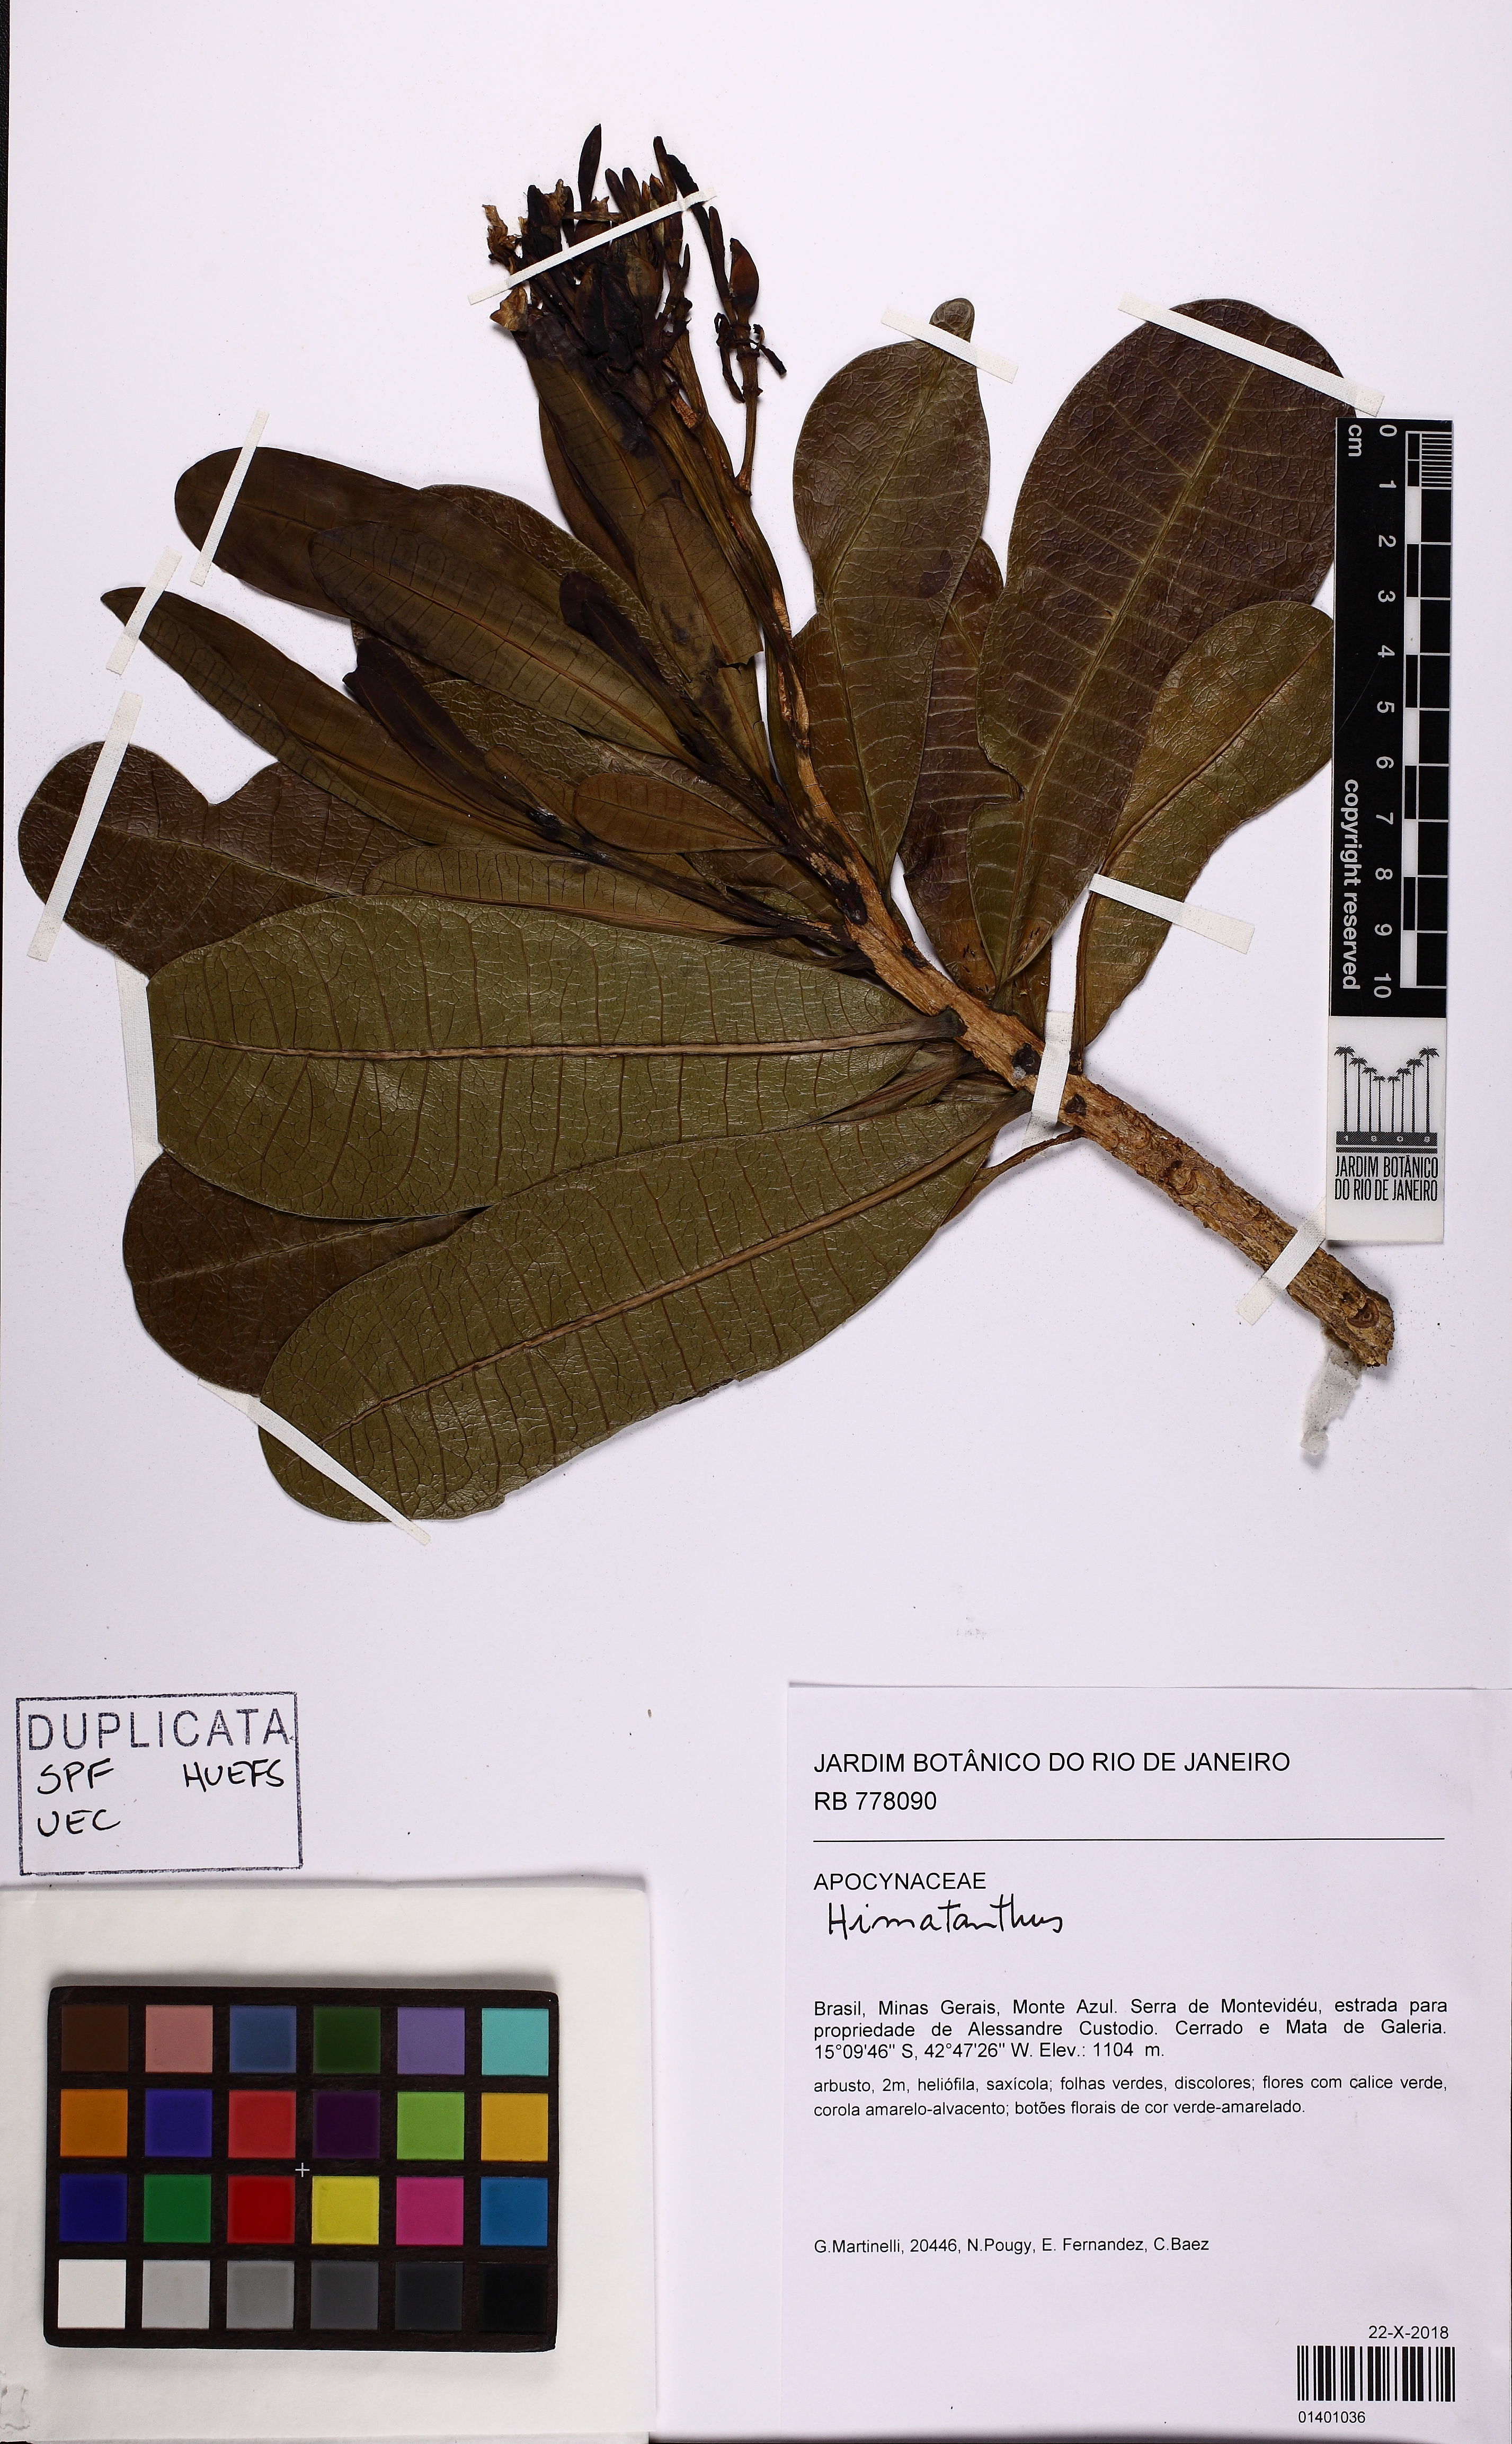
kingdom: Plantae
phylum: Tracheophyta
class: Magnoliopsida
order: Gentianales
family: Apocynaceae
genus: Himatanthus
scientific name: Himatanthus
